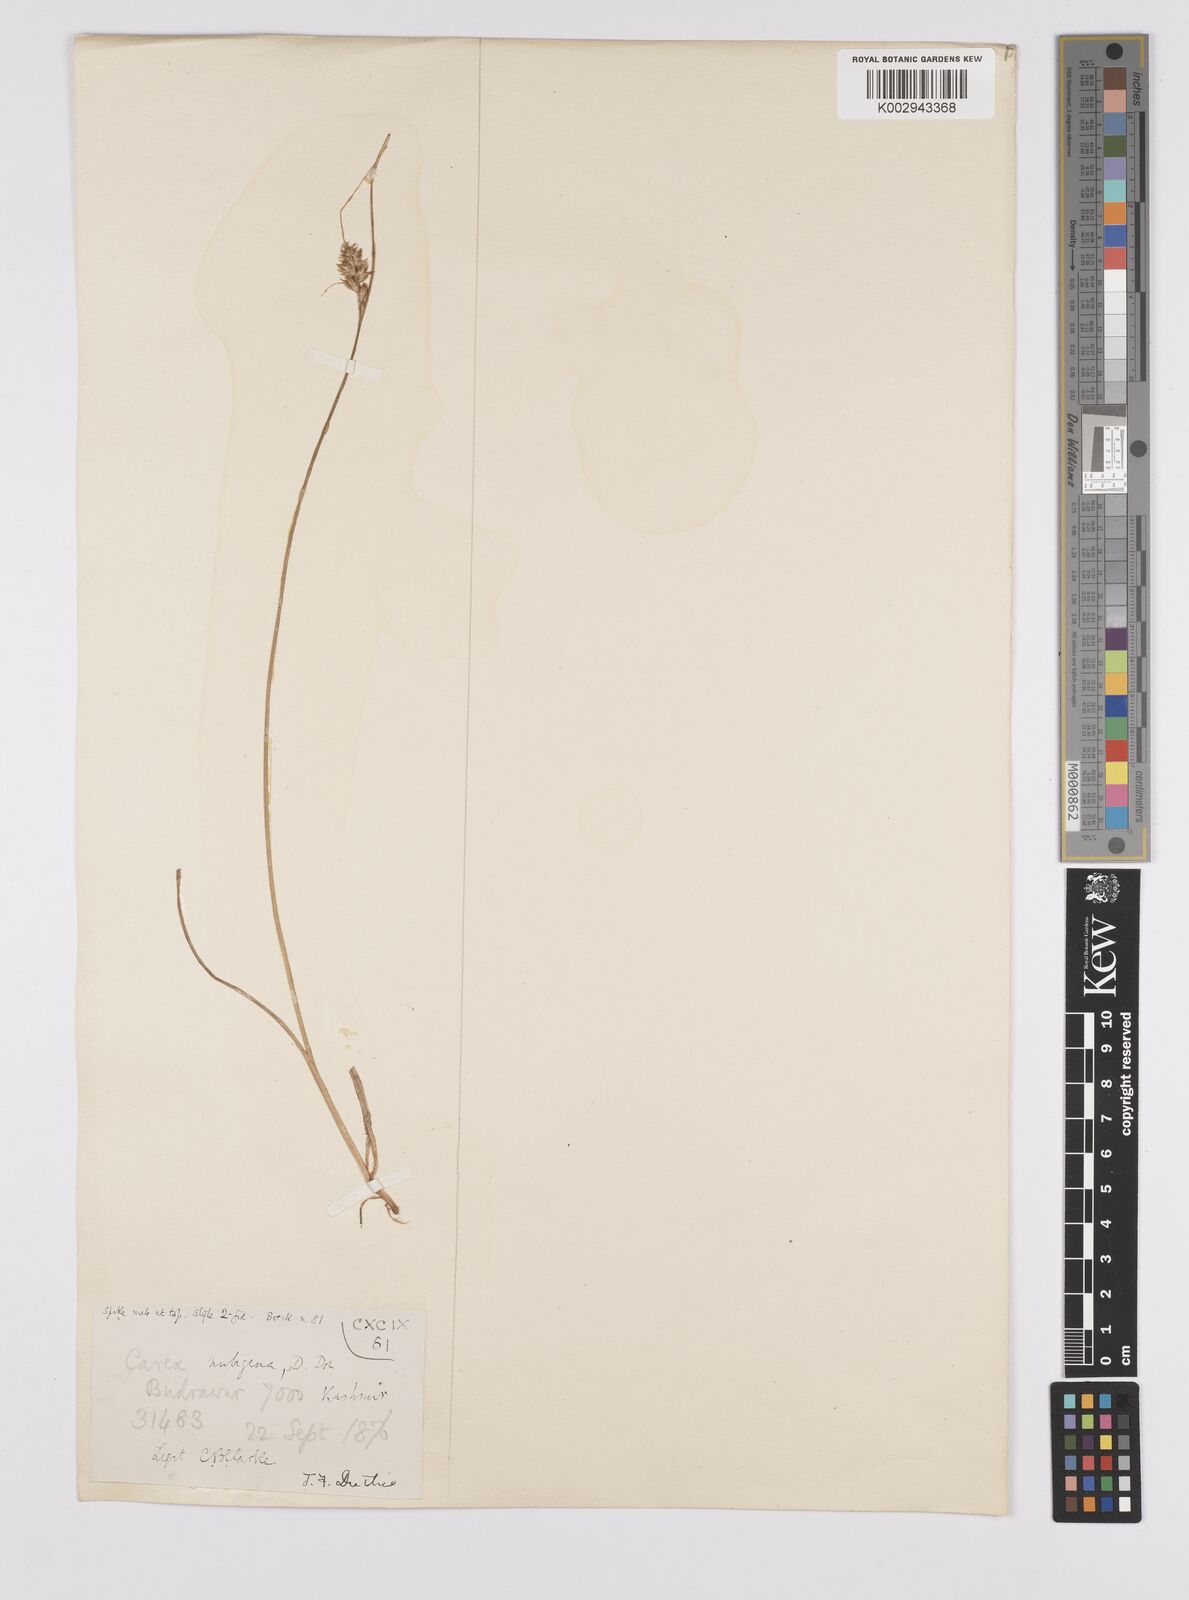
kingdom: Plantae
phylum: Tracheophyta
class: Liliopsida
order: Poales
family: Cyperaceae
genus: Carex
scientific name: Carex nubigena
